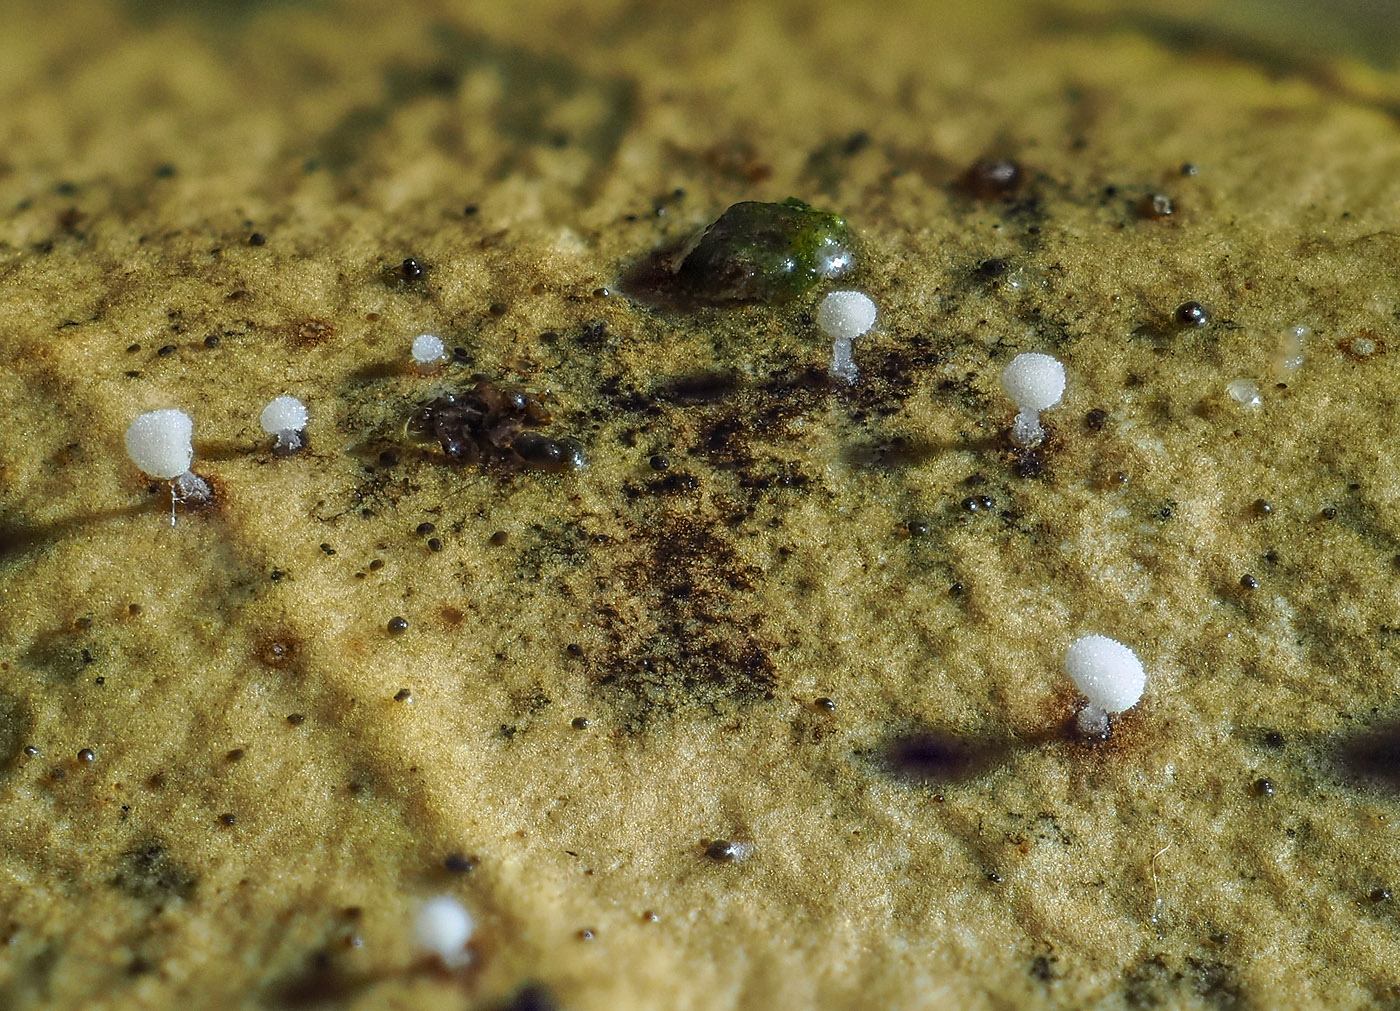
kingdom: Fungi
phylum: Basidiomycota
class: Agaricomycetes
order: Agaricales
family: Physalacriaceae
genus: Physalacria
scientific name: Physalacria stilboidea
